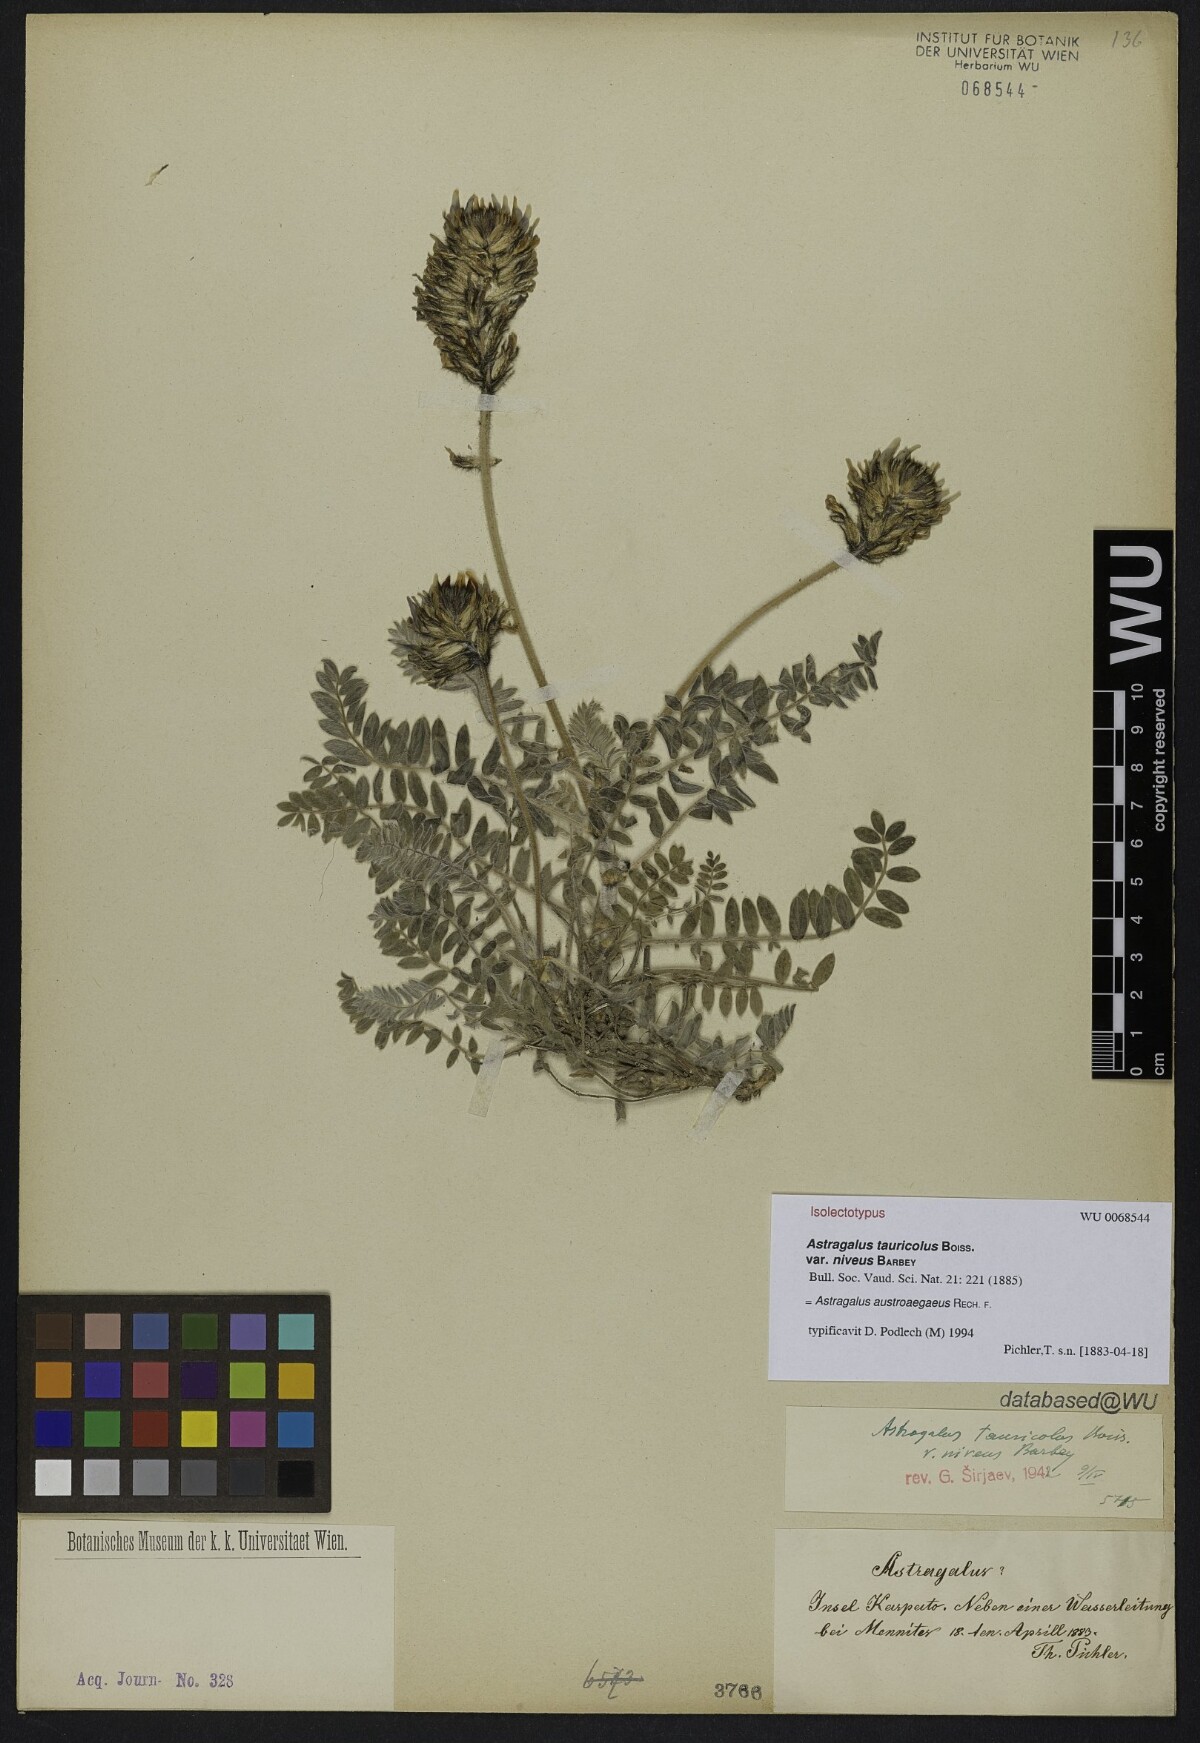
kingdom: Plantae
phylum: Tracheophyta
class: Magnoliopsida
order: Fabales
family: Fabaceae
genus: Astragalus
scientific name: Astragalus austroaegaeus
